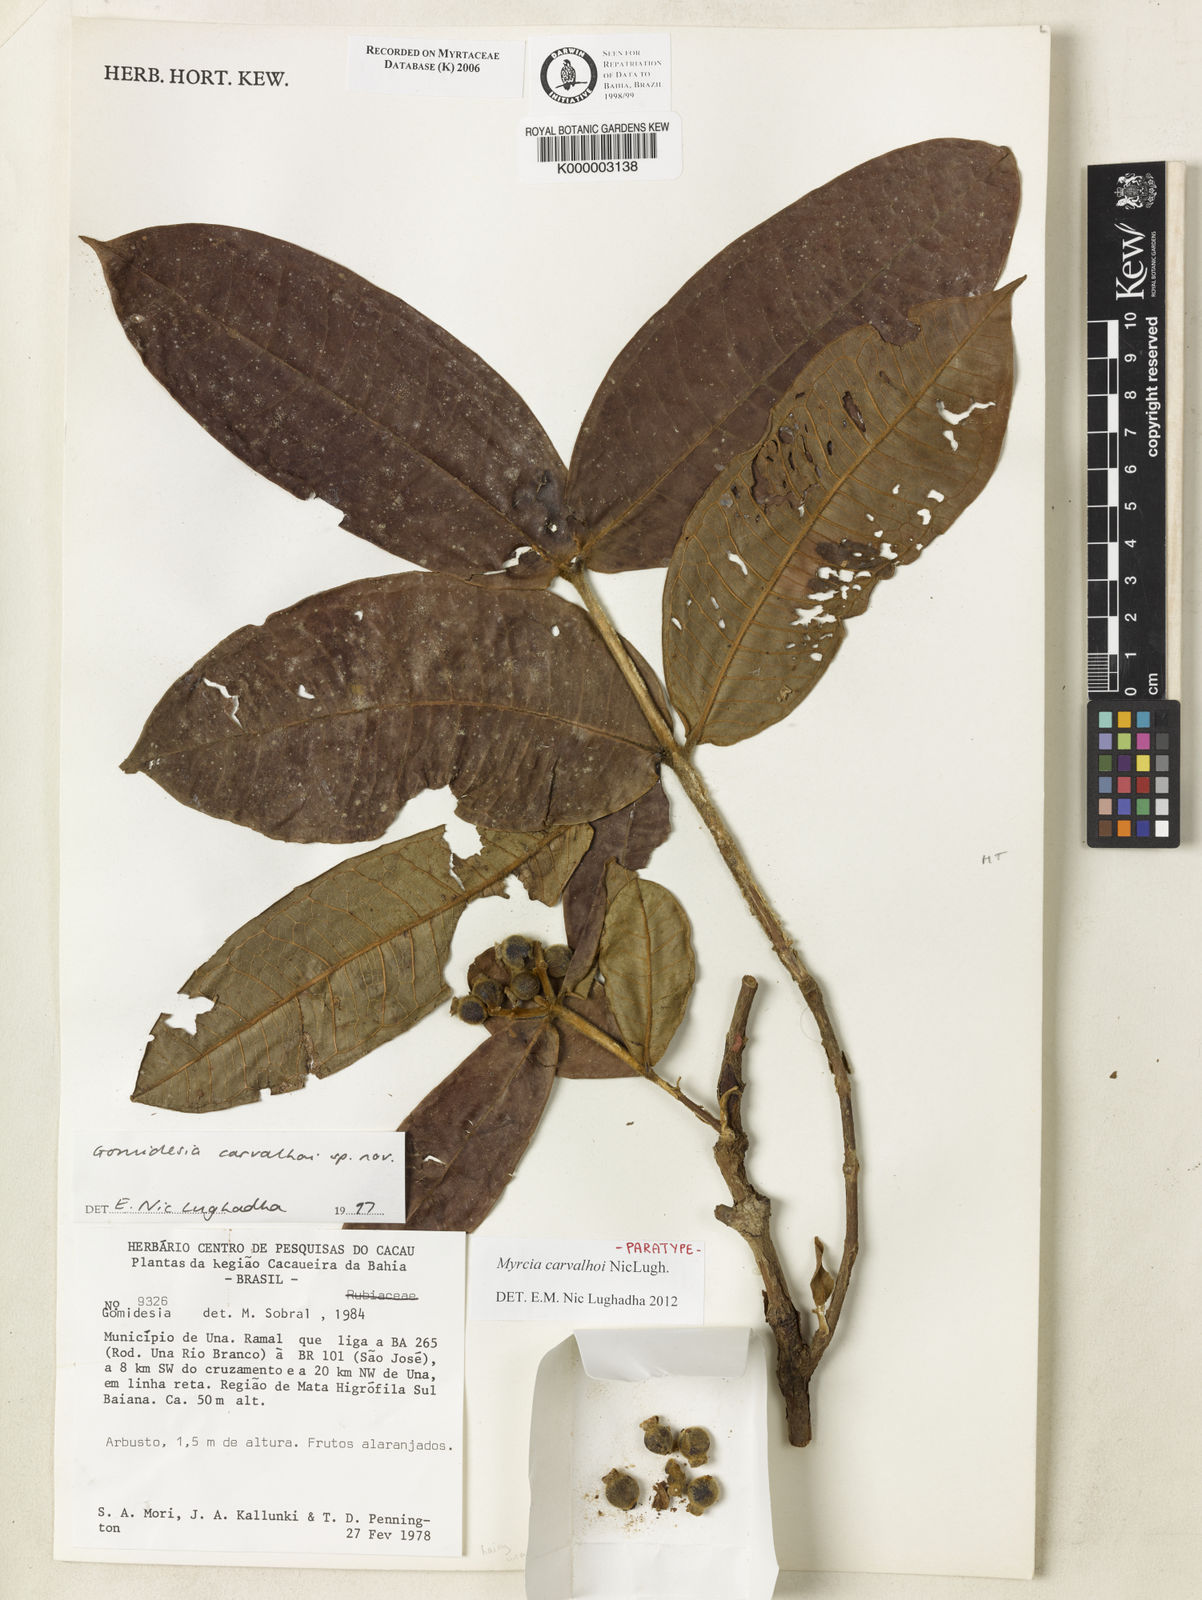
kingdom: Plantae
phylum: Tracheophyta
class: Magnoliopsida
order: Myrtales
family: Myrtaceae
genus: Myrcia
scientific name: Myrcia carvalhoi
